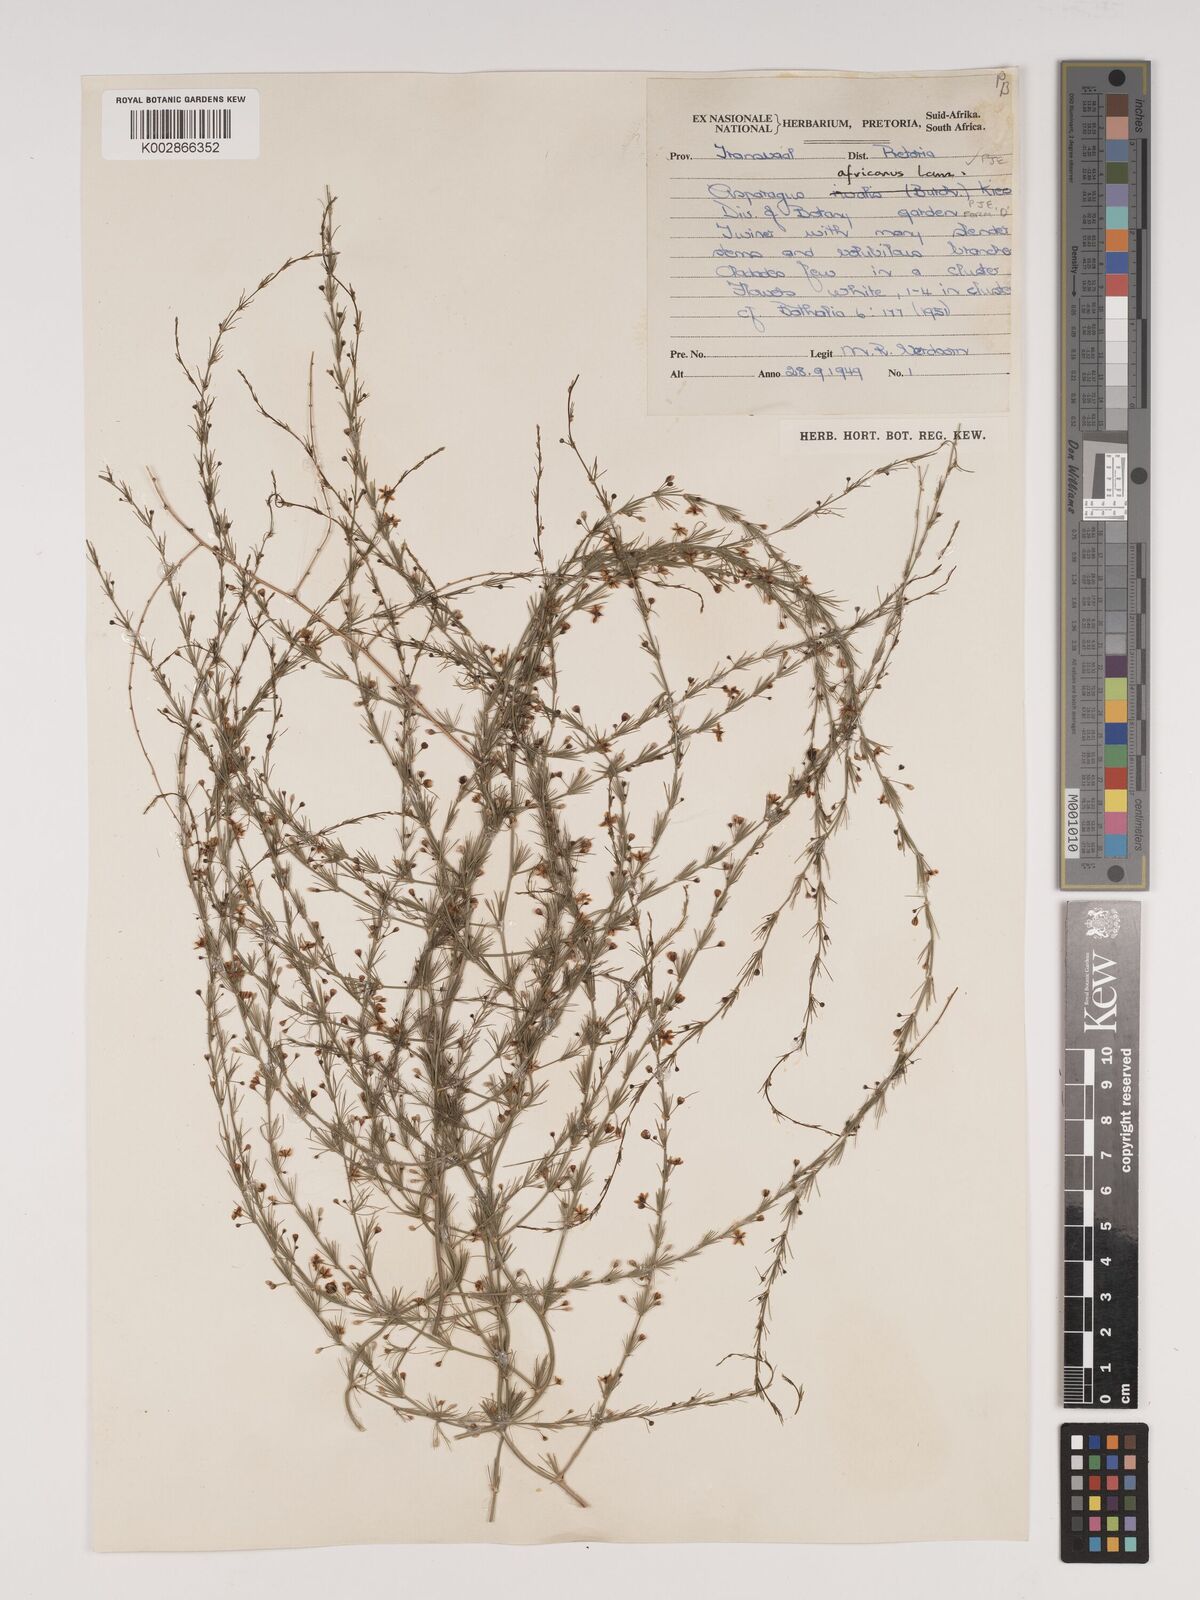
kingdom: Plantae
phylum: Tracheophyta
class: Liliopsida
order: Asparagales
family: Asparagaceae
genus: Asparagus
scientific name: Asparagus africanus
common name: Asparagus-fern
